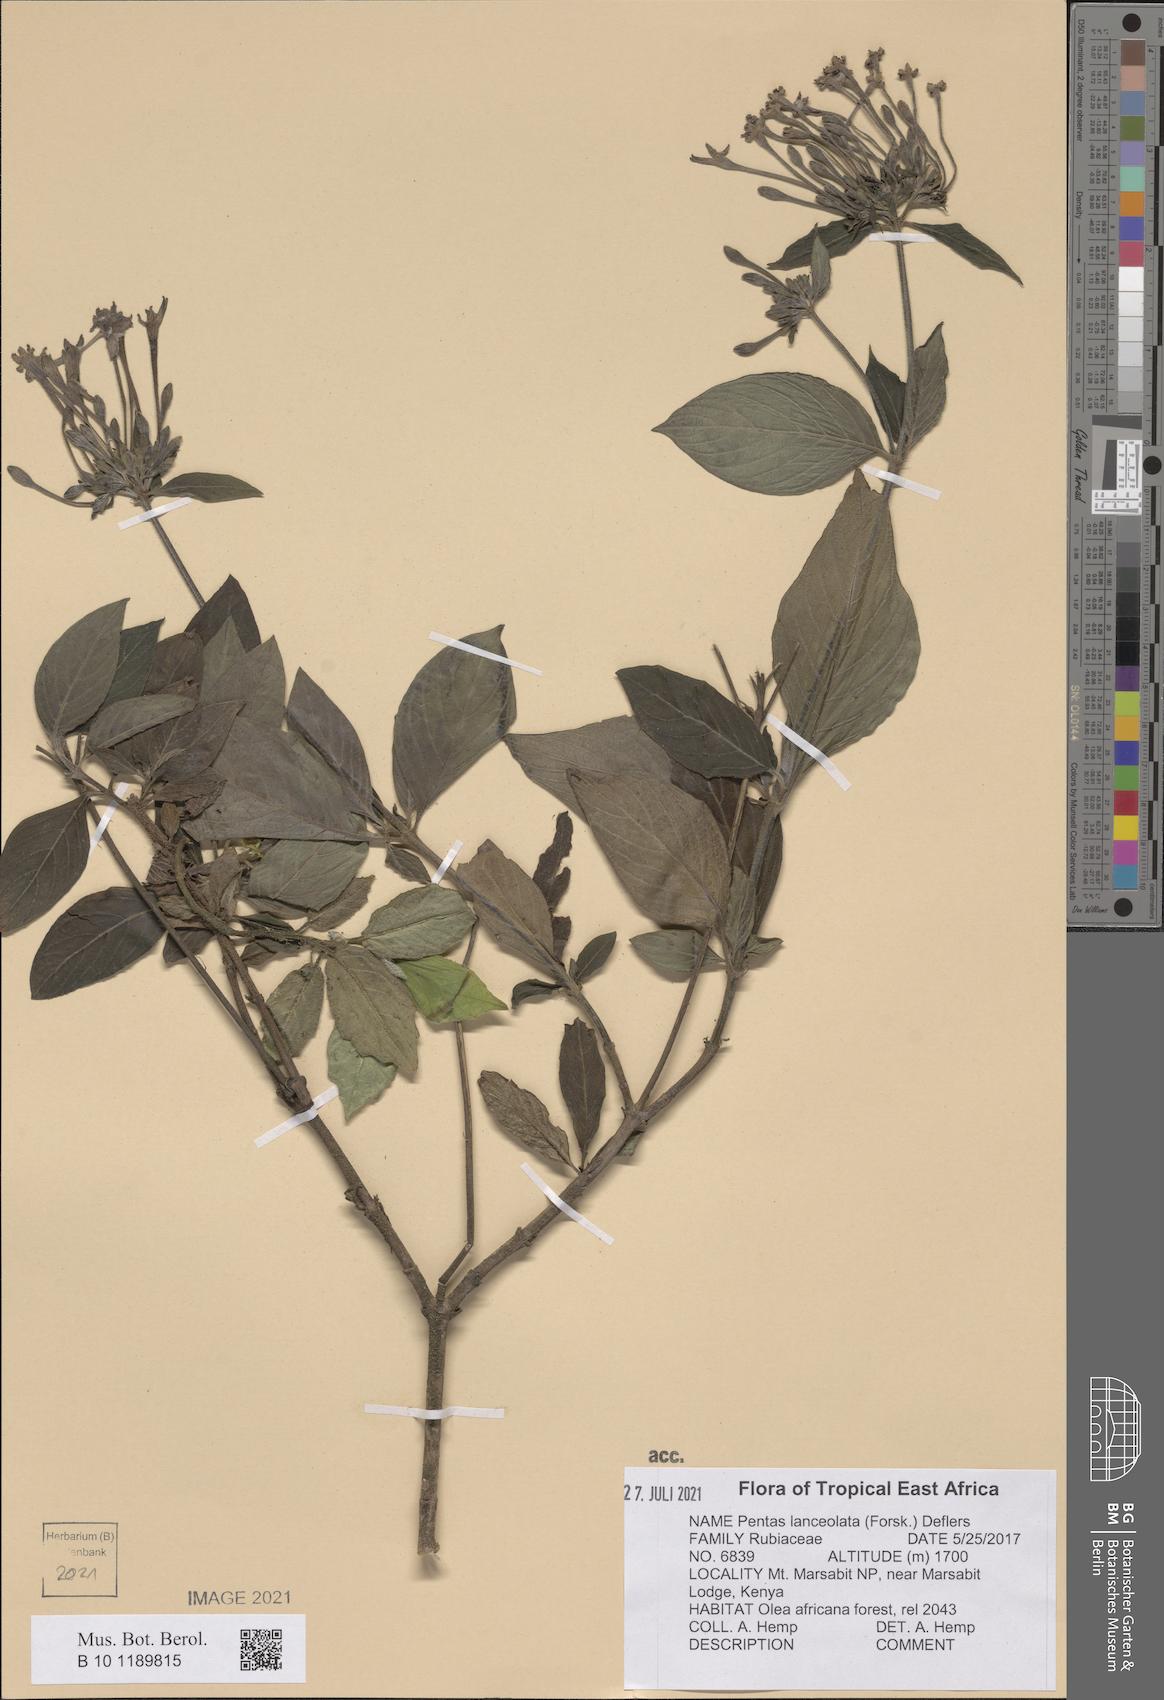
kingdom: Plantae
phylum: Tracheophyta
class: Magnoliopsida
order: Gentianales
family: Rubiaceae
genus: Pentas
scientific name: Pentas lanceolata
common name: Egyptian starcluster
